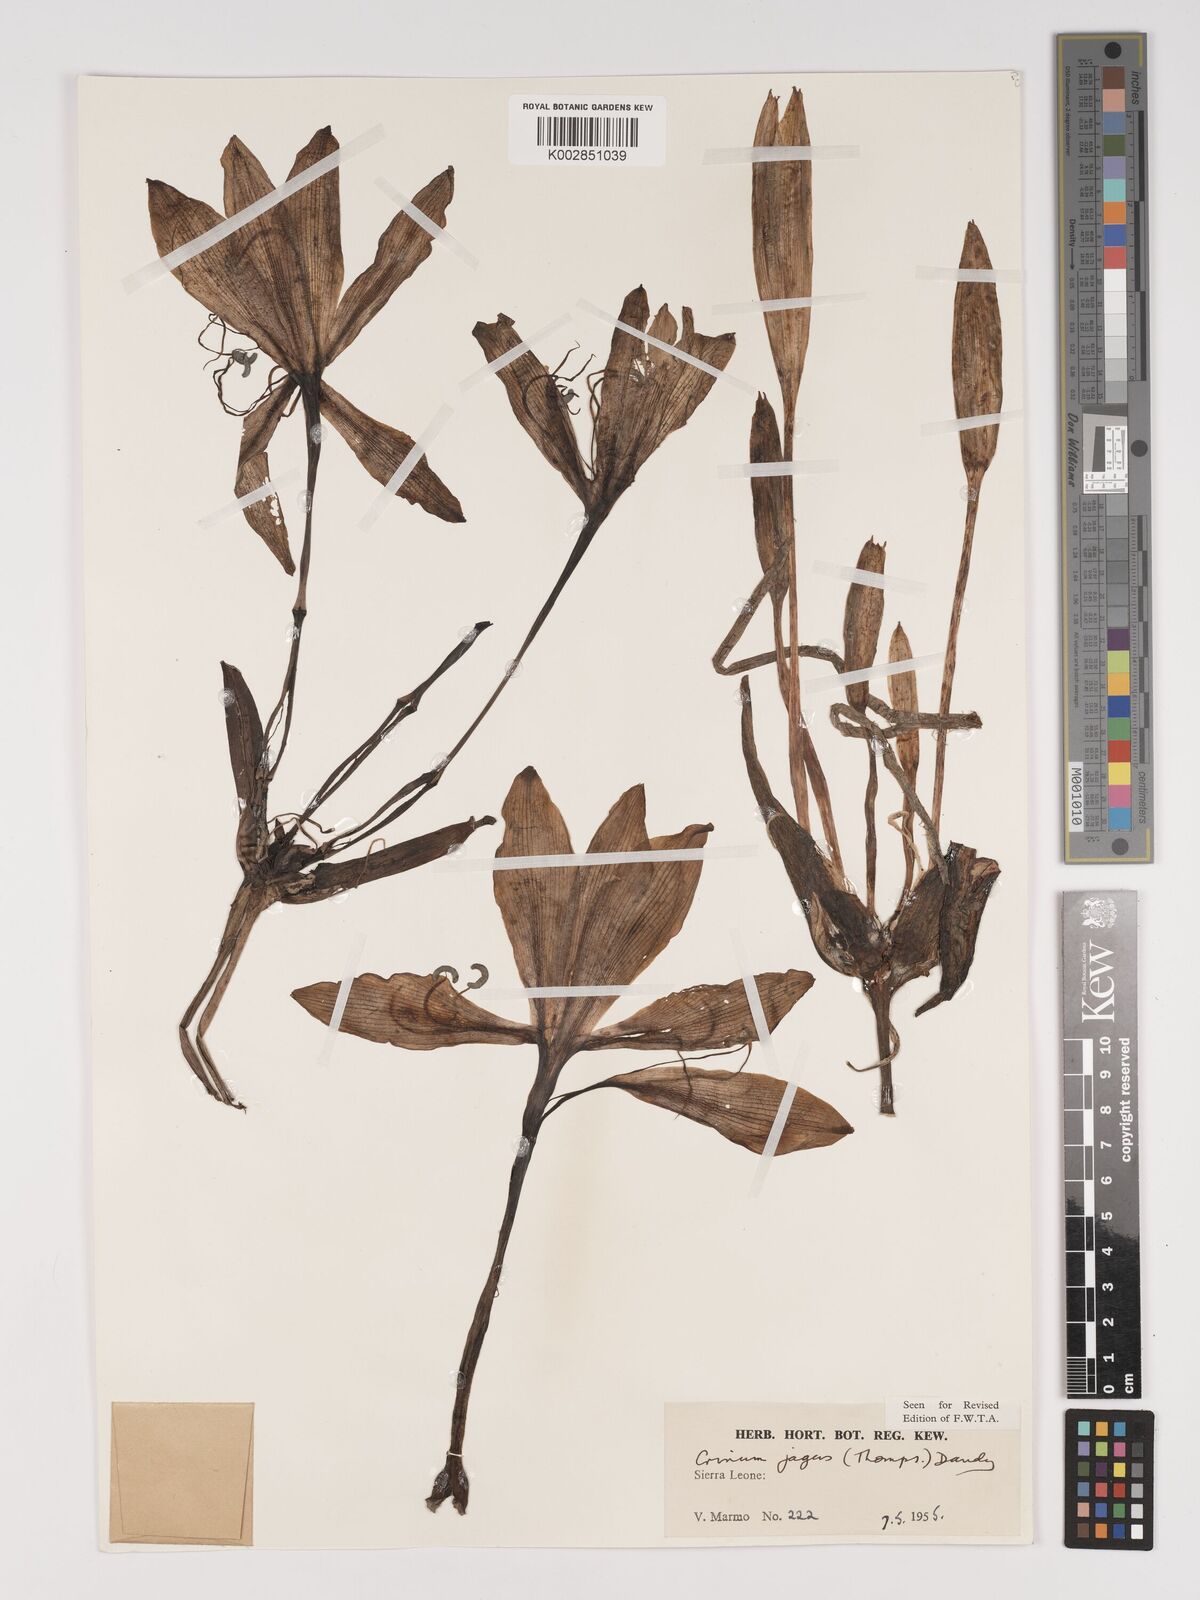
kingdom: Plantae
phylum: Tracheophyta
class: Liliopsida
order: Asparagales
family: Amaryllidaceae
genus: Crinum
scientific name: Crinum jagus
